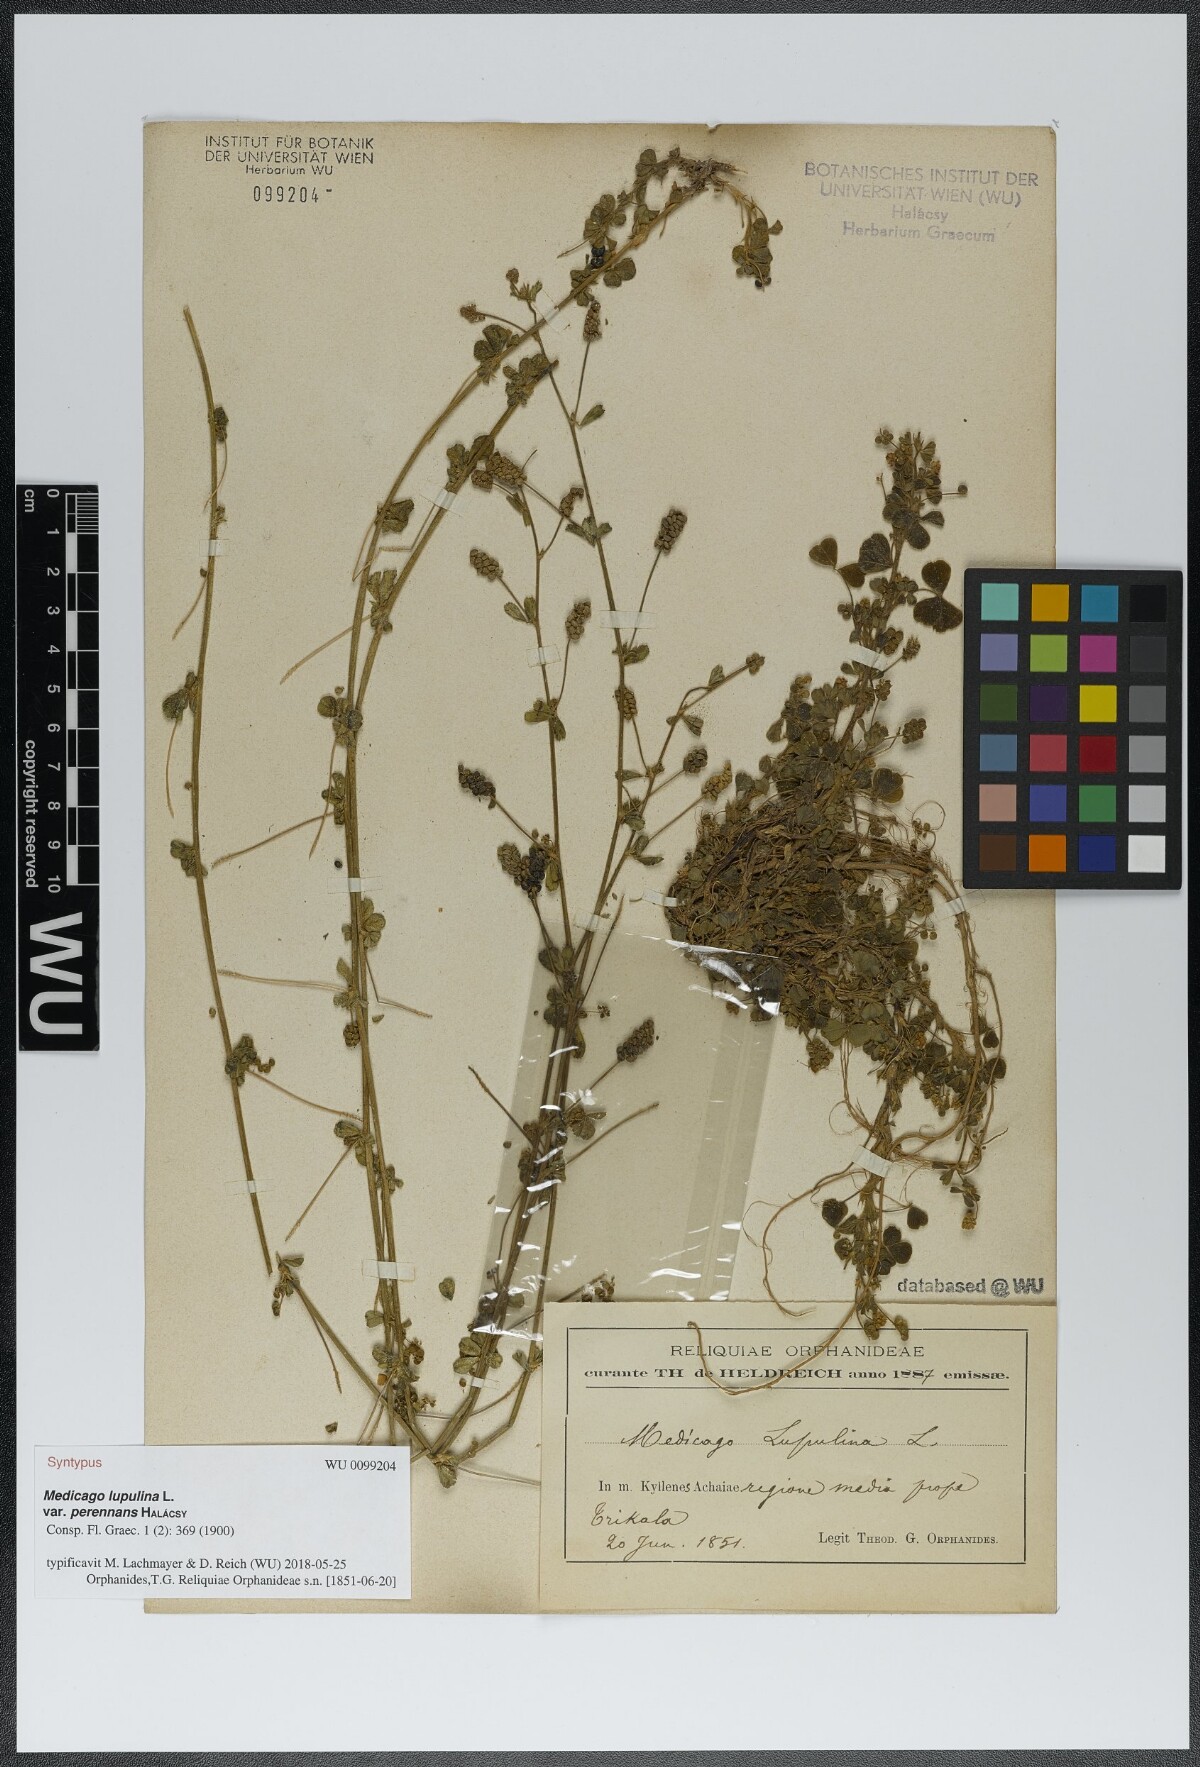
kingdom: Plantae
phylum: Tracheophyta
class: Magnoliopsida
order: Fabales
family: Fabaceae
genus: Medicago
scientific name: Medicago lupulina
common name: Black medick
